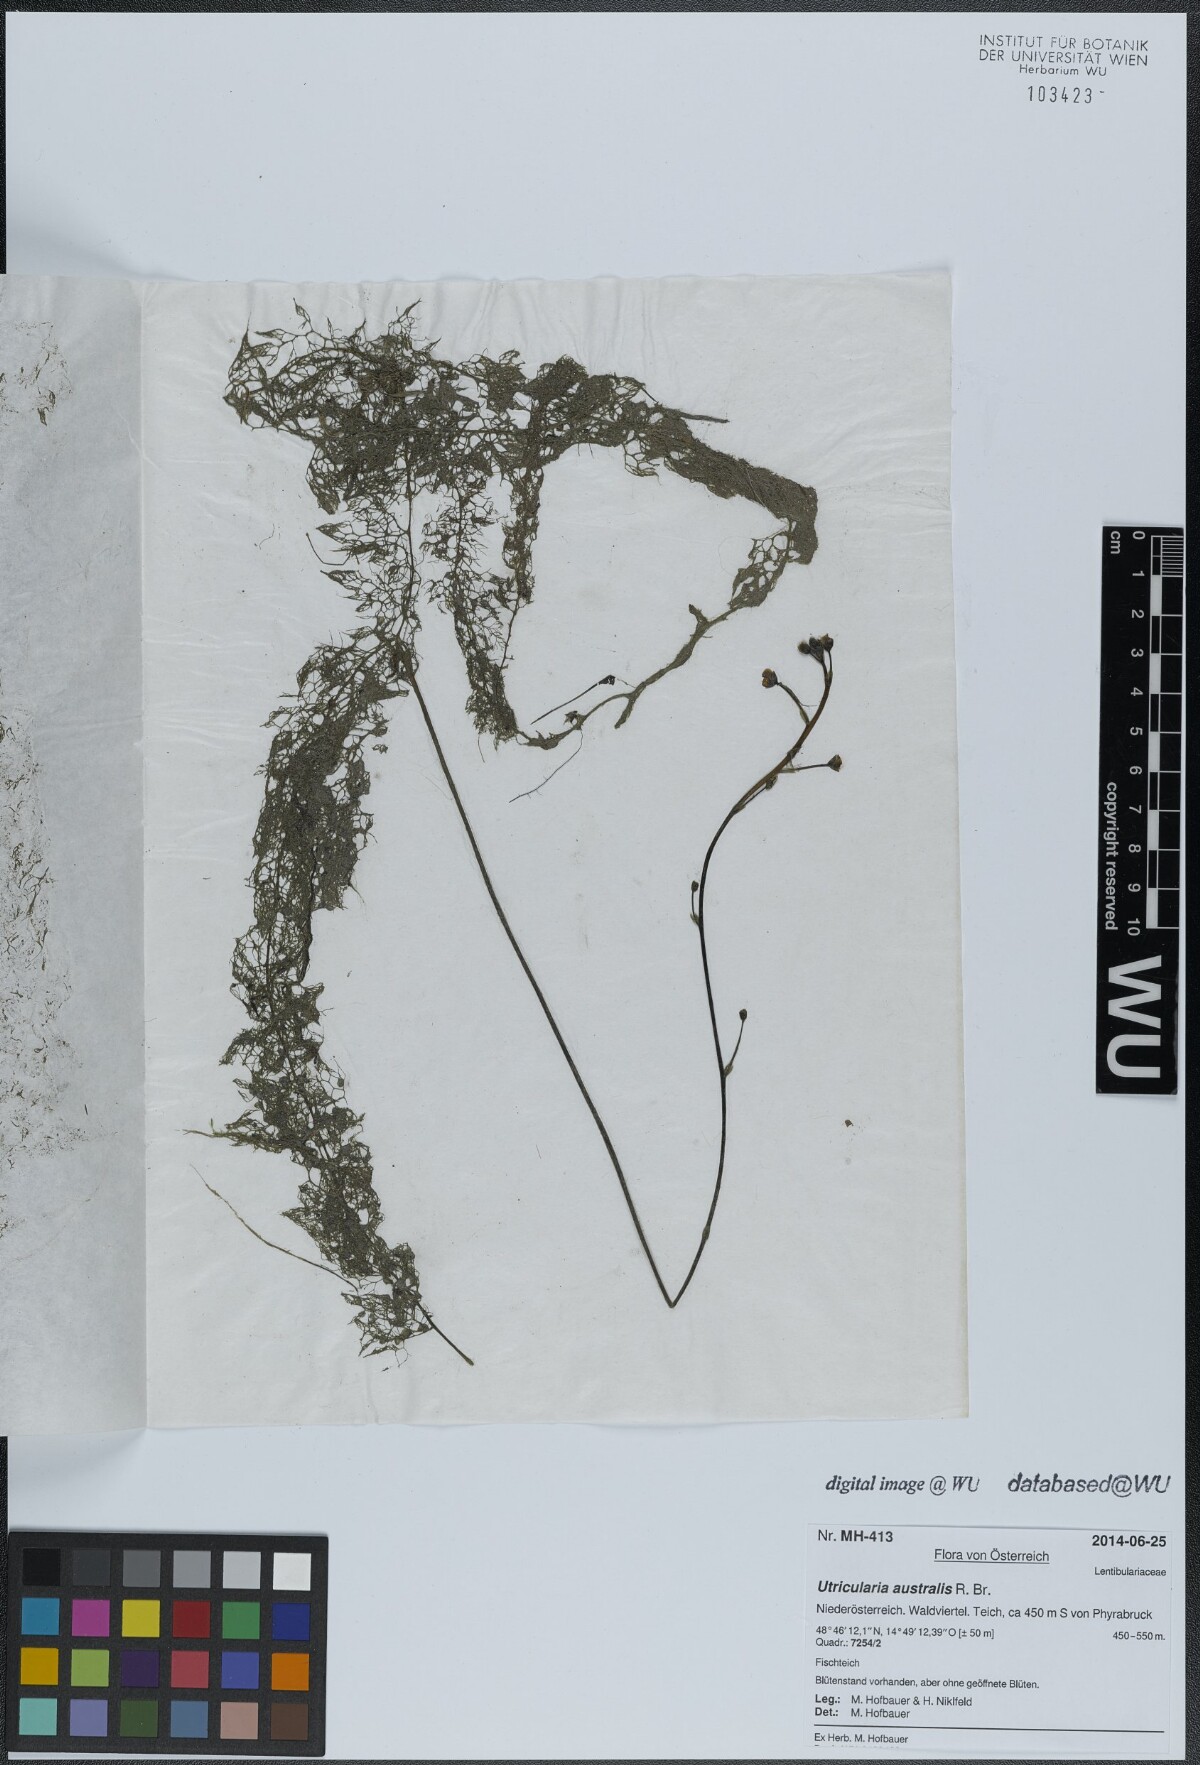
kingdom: Plantae
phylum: Tracheophyta
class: Magnoliopsida
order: Lamiales
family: Lentibulariaceae
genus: Utricularia
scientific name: Utricularia australis
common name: Bladderwort
